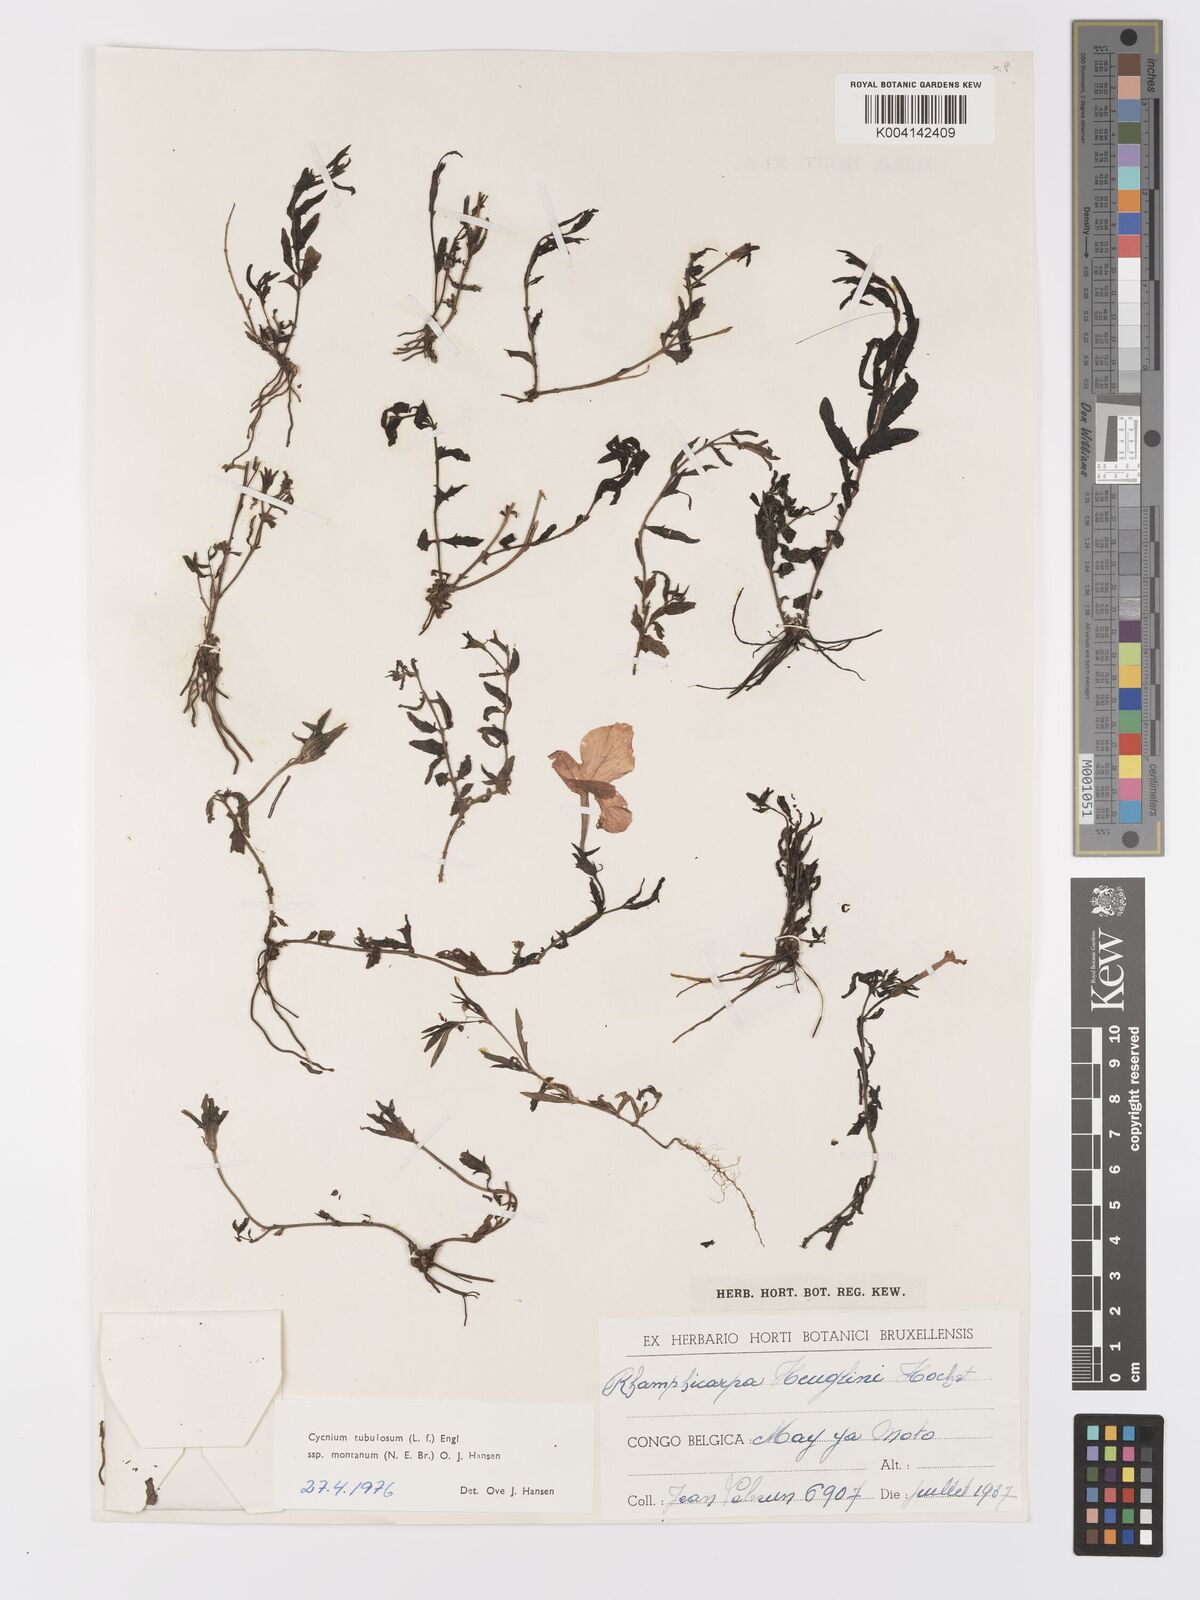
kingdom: Plantae
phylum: Tracheophyta
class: Magnoliopsida
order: Lamiales
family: Orobanchaceae
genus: Cycnium
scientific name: Cycnium tubulosum
